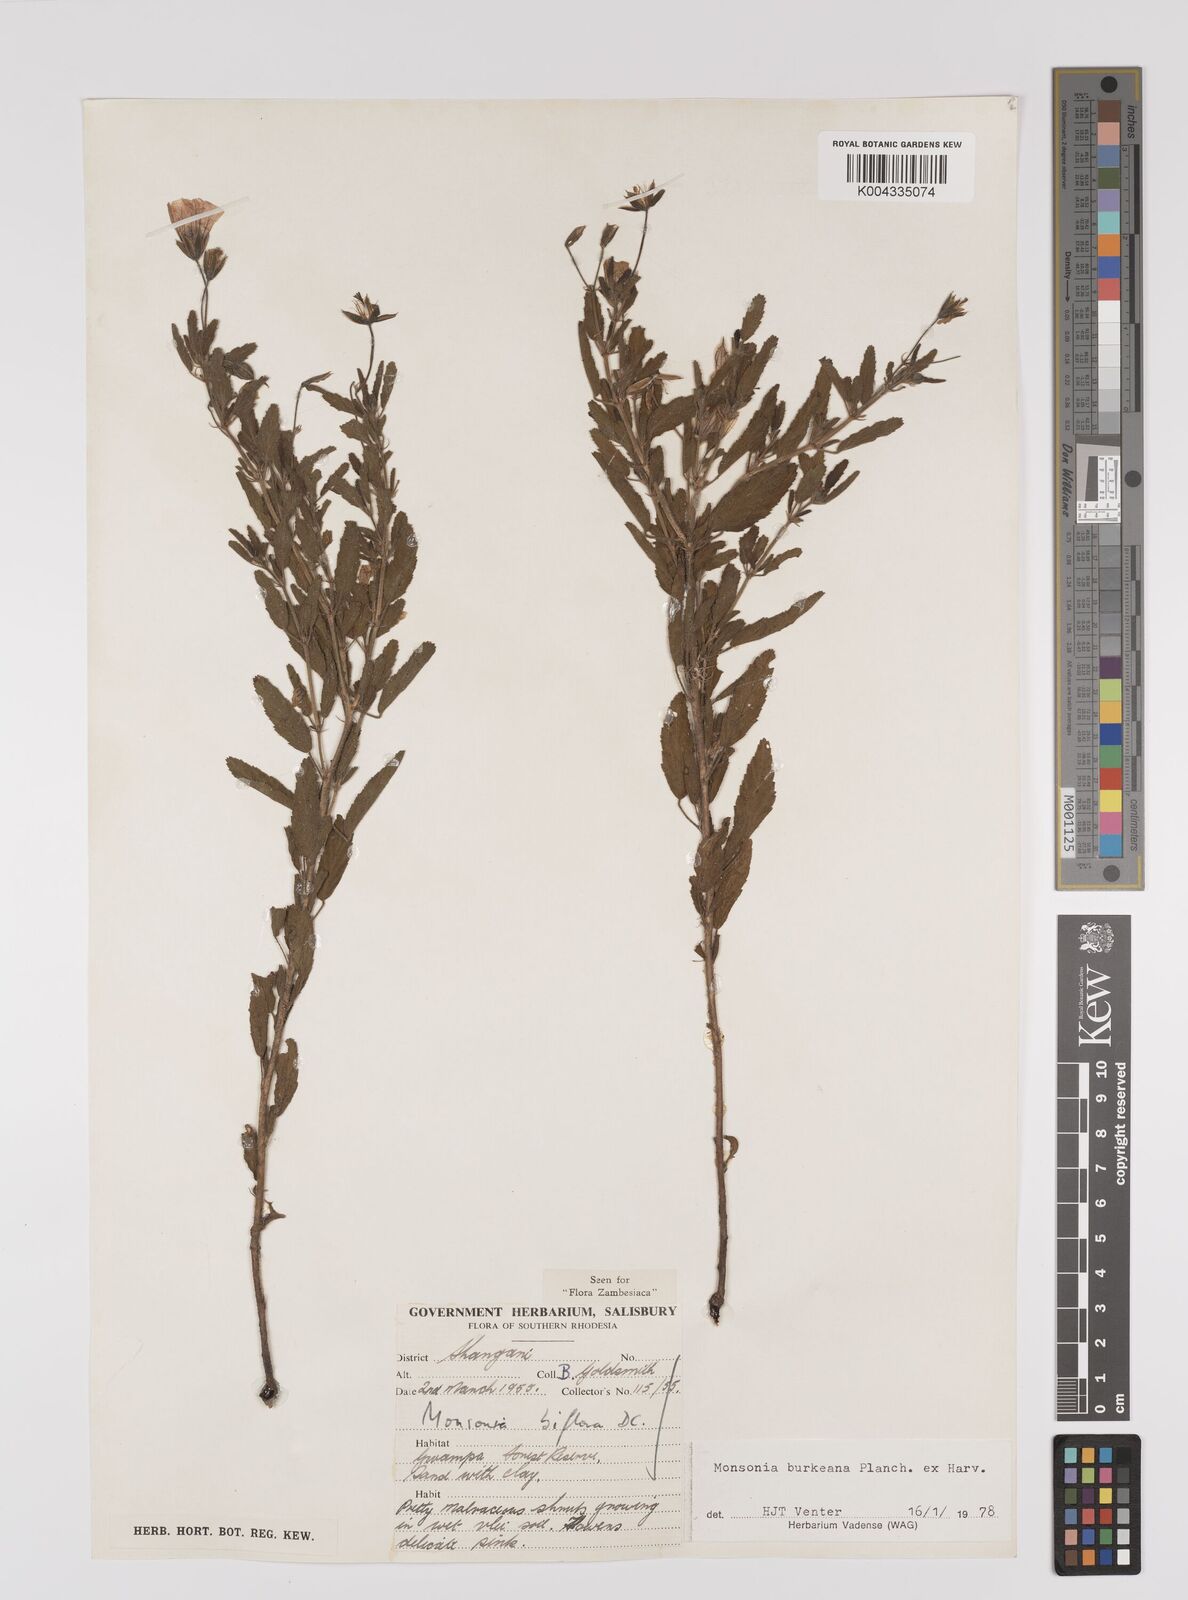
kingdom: Plantae
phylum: Tracheophyta
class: Magnoliopsida
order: Geraniales
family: Geraniaceae
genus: Monsonia
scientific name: Monsonia biflora
